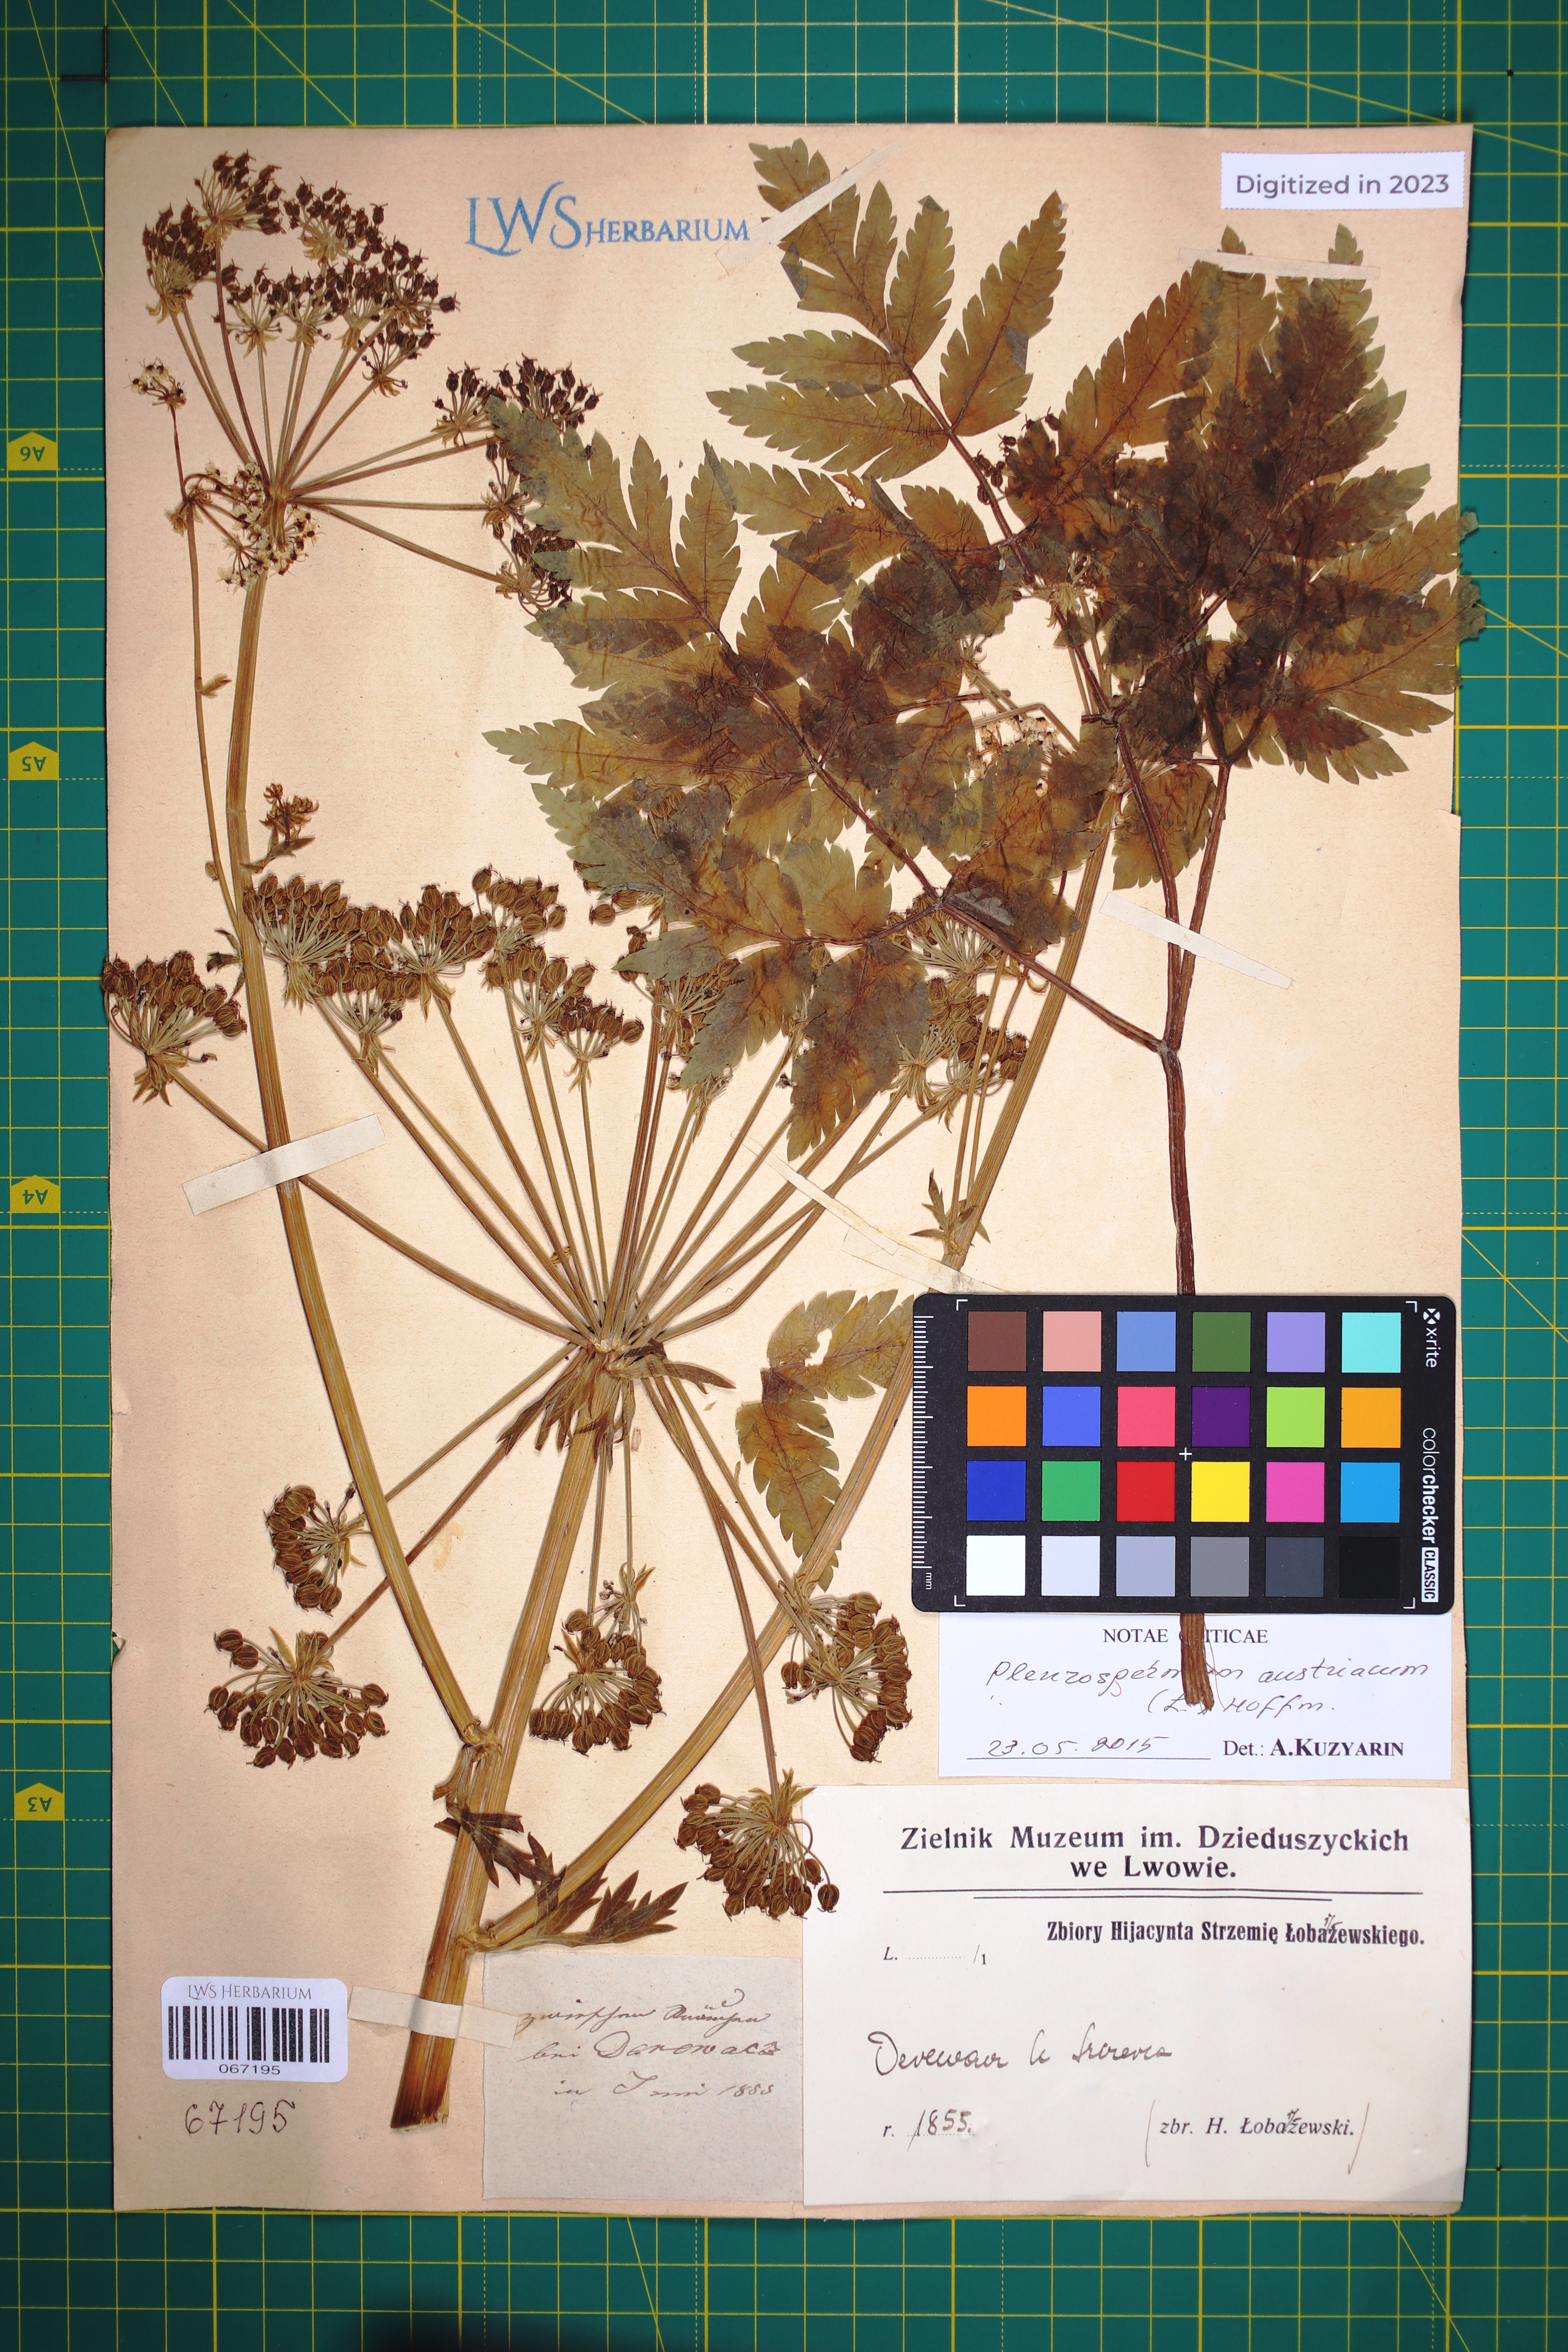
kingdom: Plantae
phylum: Tracheophyta
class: Magnoliopsida
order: Apiales
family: Apiaceae
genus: Pleurospermum
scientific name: Pleurospermum austriacum
